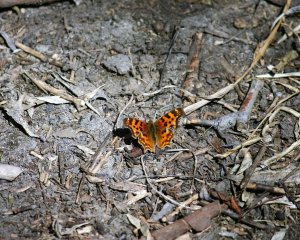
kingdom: Animalia
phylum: Arthropoda
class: Insecta
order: Lepidoptera
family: Nymphalidae
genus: Polygonia
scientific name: Polygonia satyrus
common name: Satyr Comma
